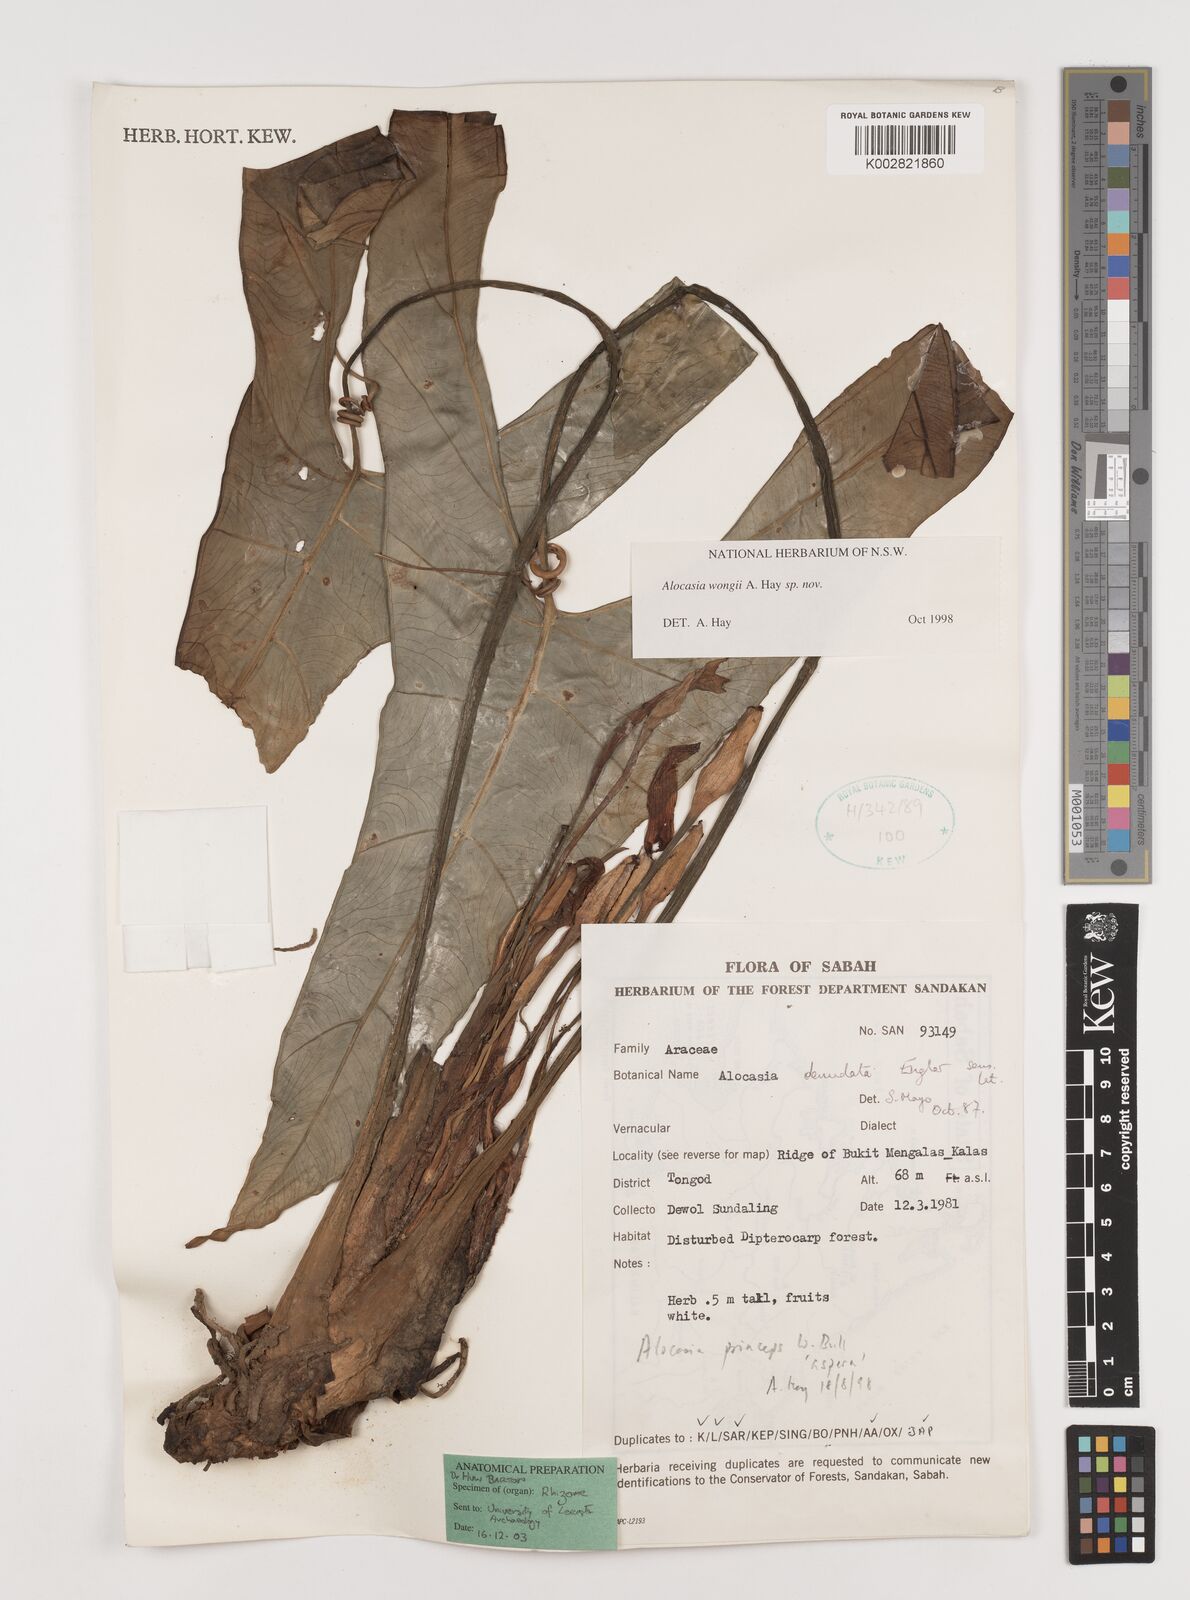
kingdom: Plantae
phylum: Tracheophyta
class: Liliopsida
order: Alismatales
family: Araceae
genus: Alocasia
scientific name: Alocasia wongii
